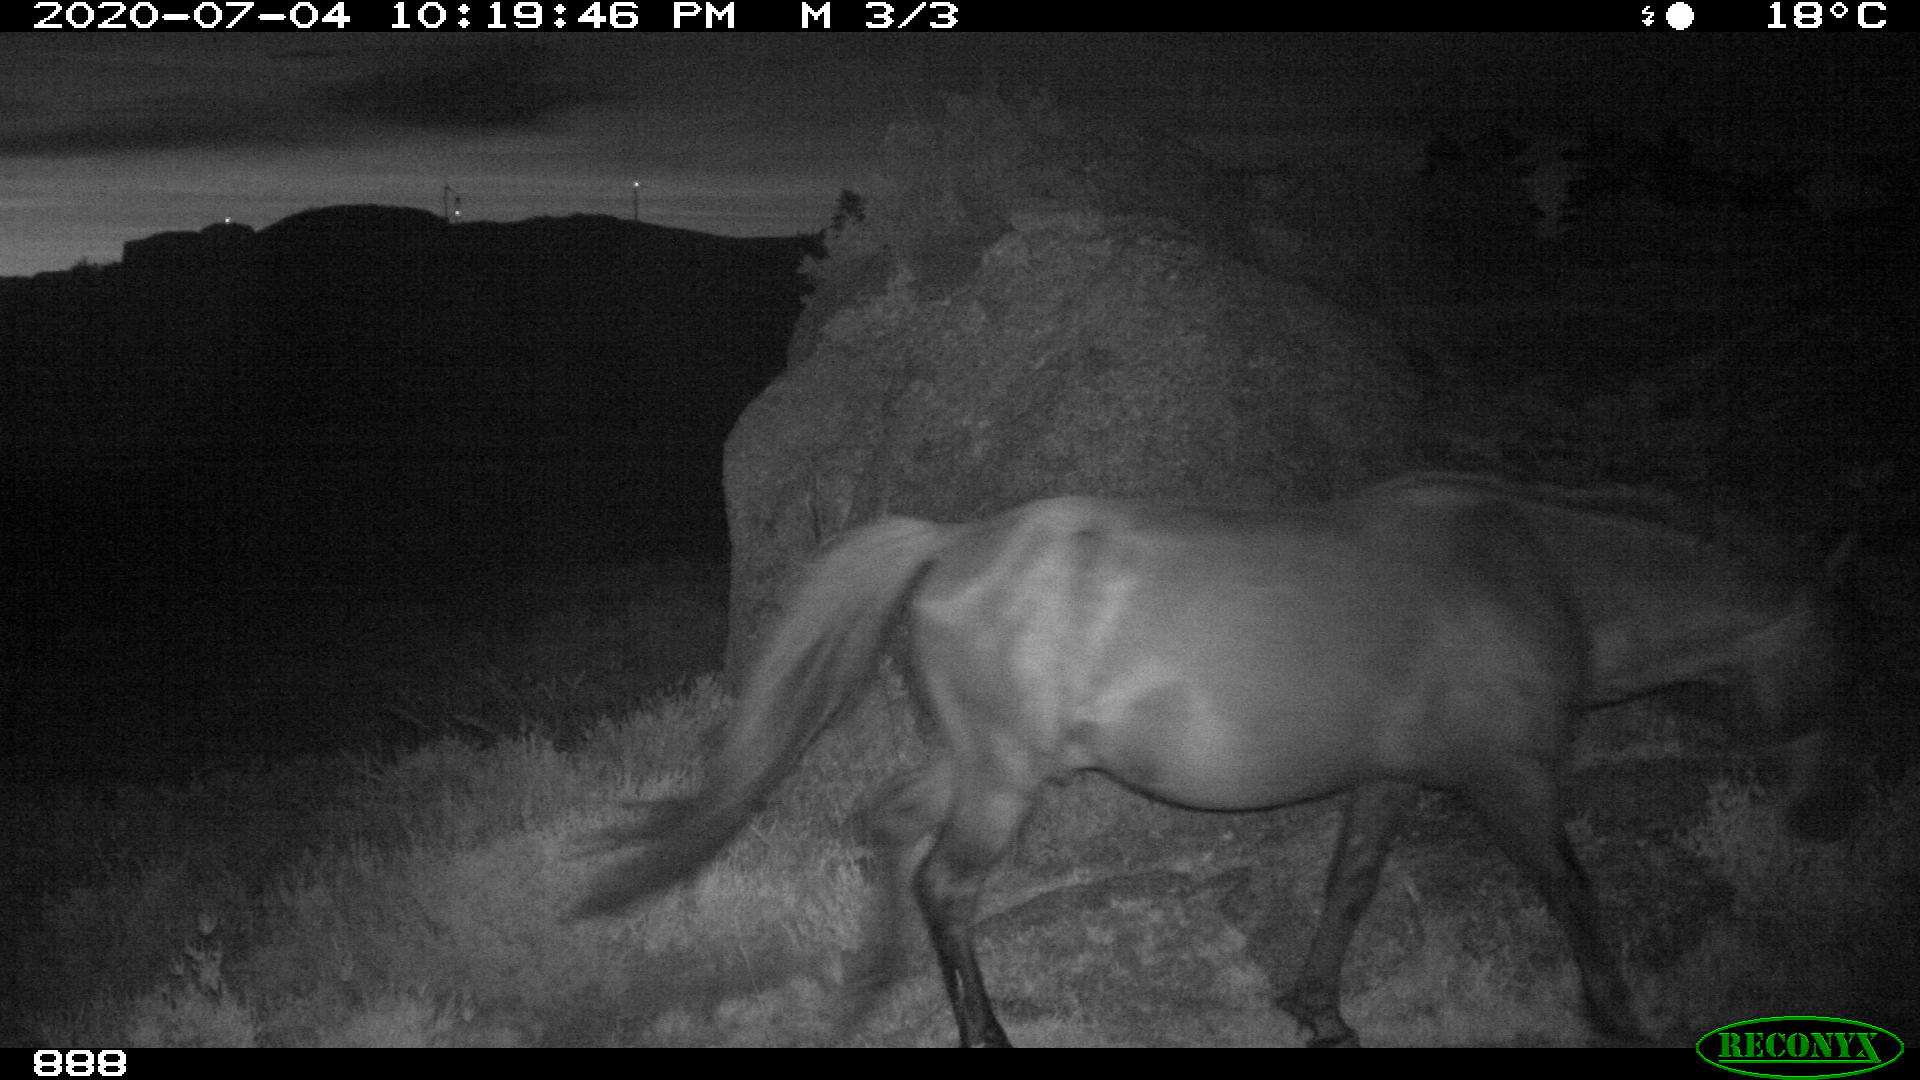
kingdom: Animalia
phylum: Chordata
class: Mammalia
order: Perissodactyla
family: Equidae
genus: Equus
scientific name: Equus caballus
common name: Horse
